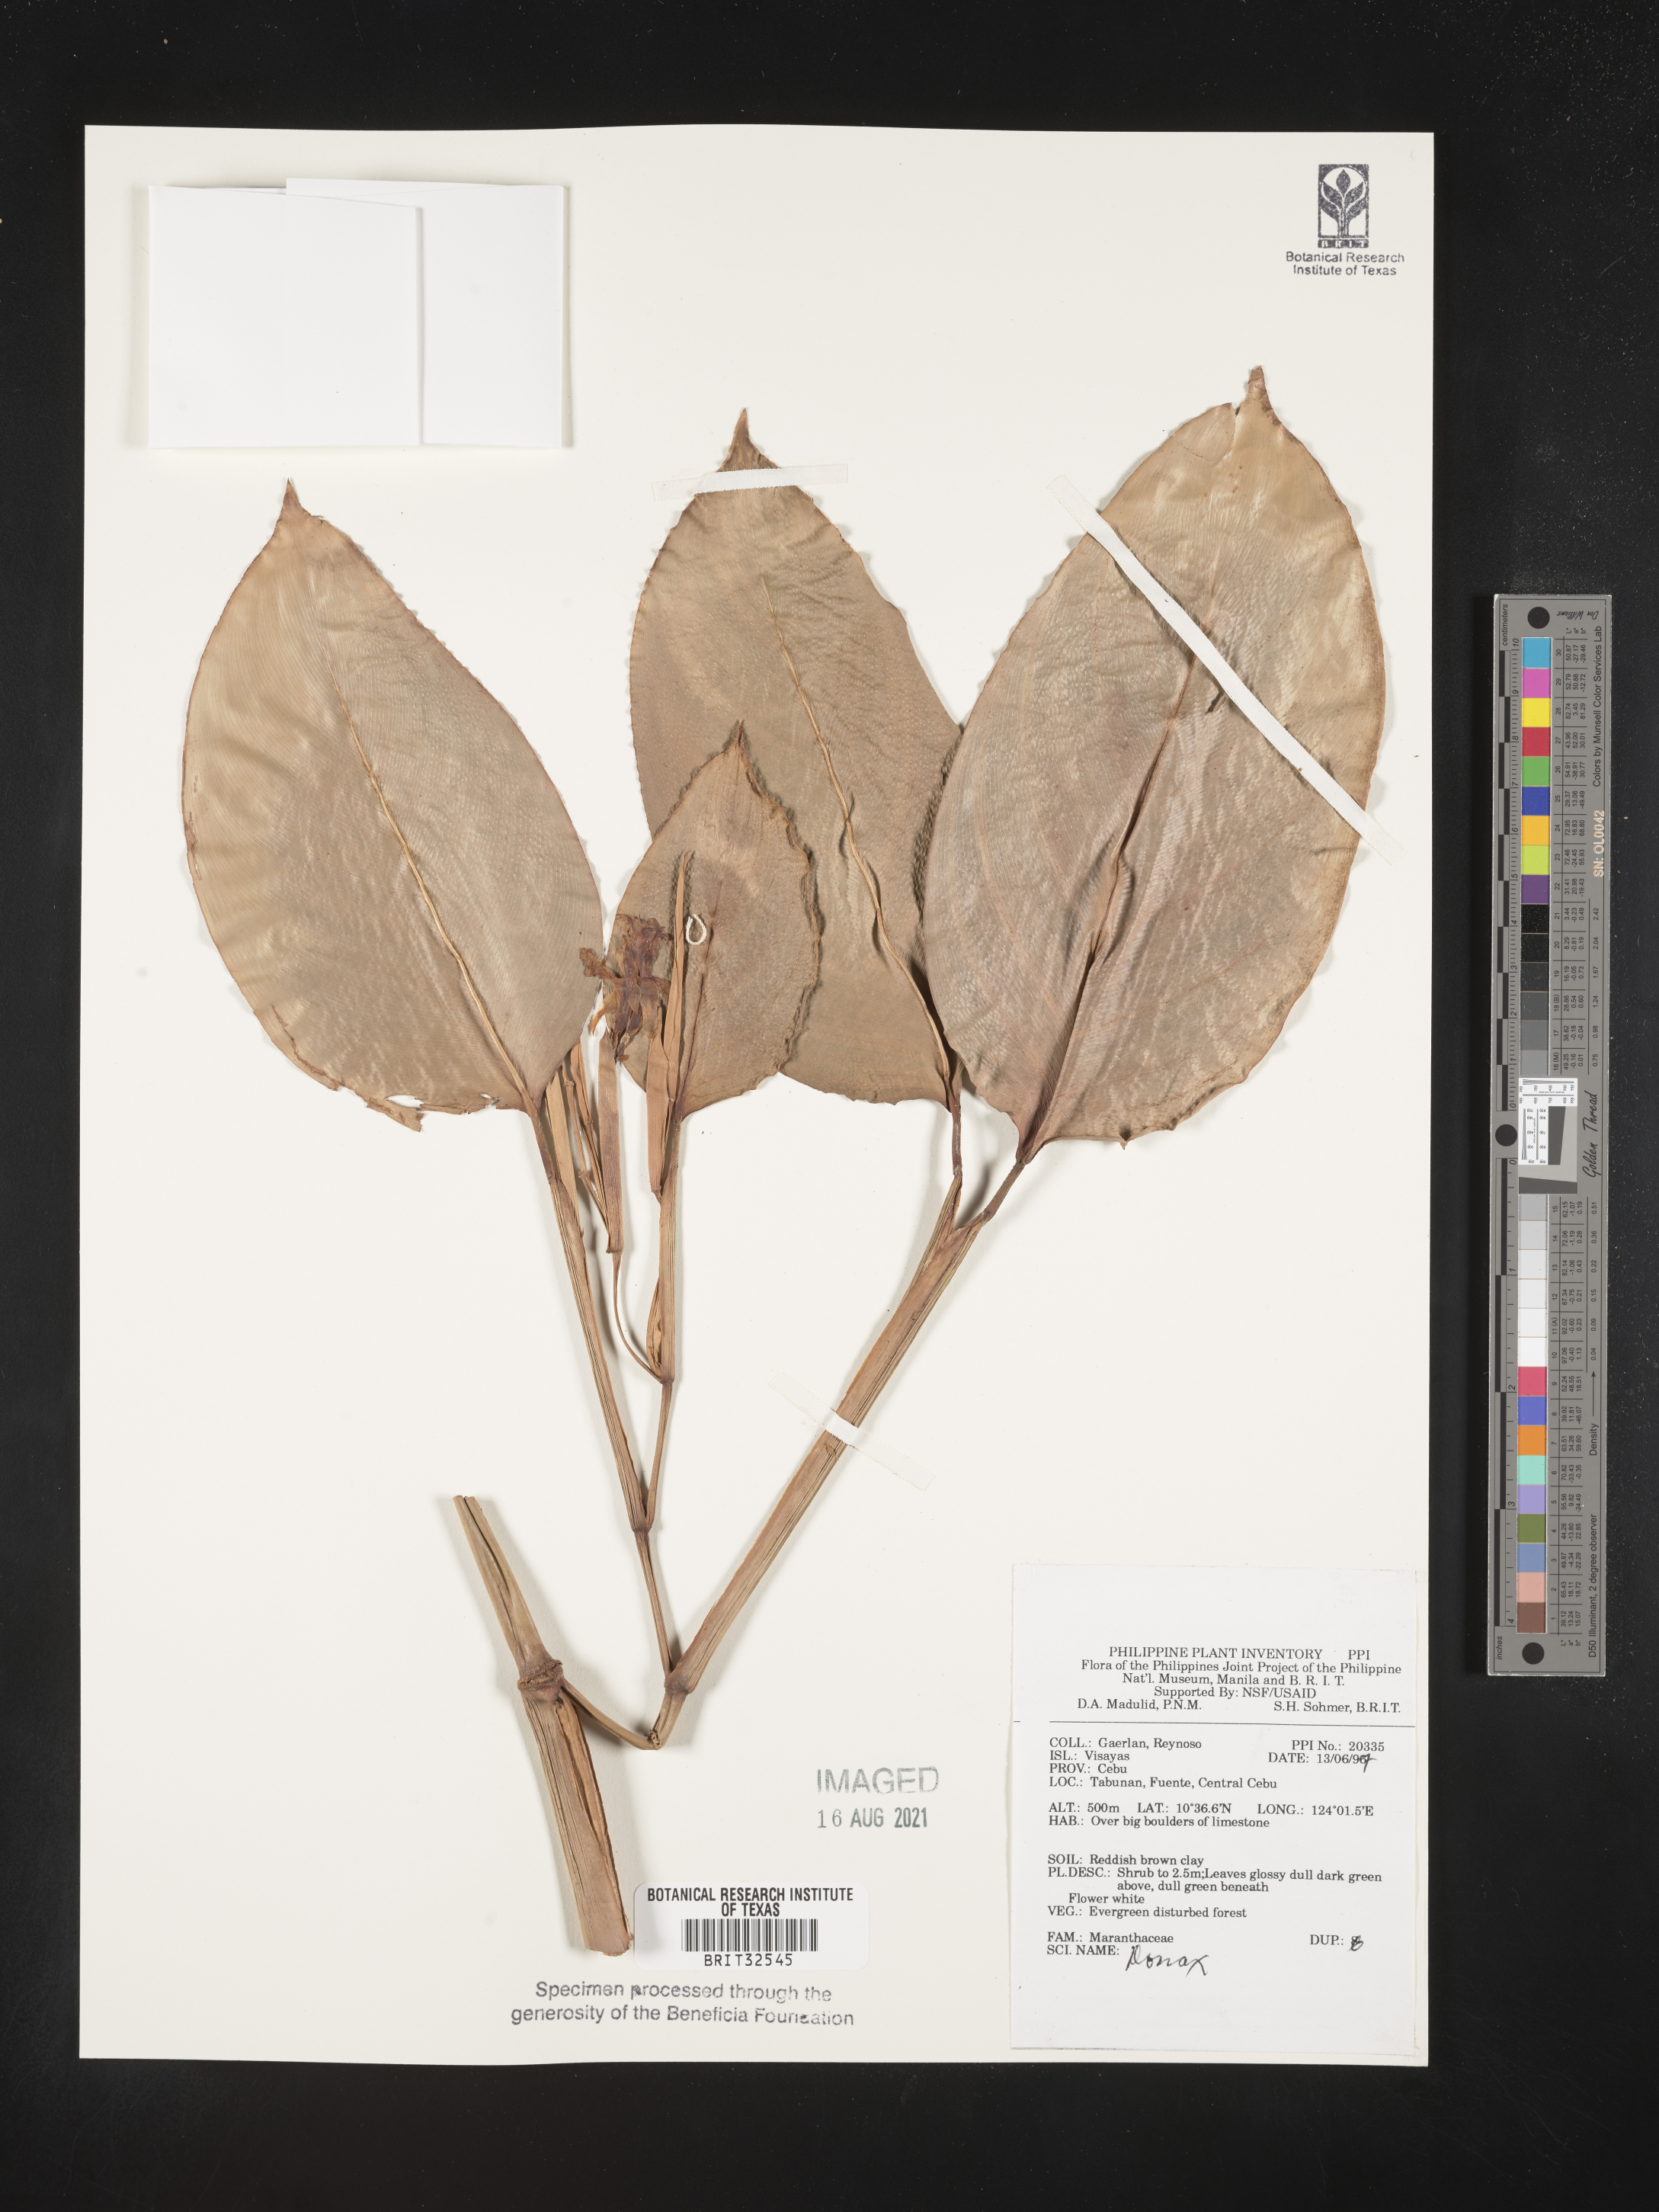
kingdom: Plantae
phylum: Tracheophyta
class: Liliopsida
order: Zingiberales
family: Marantaceae
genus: Donax
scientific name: Donax
